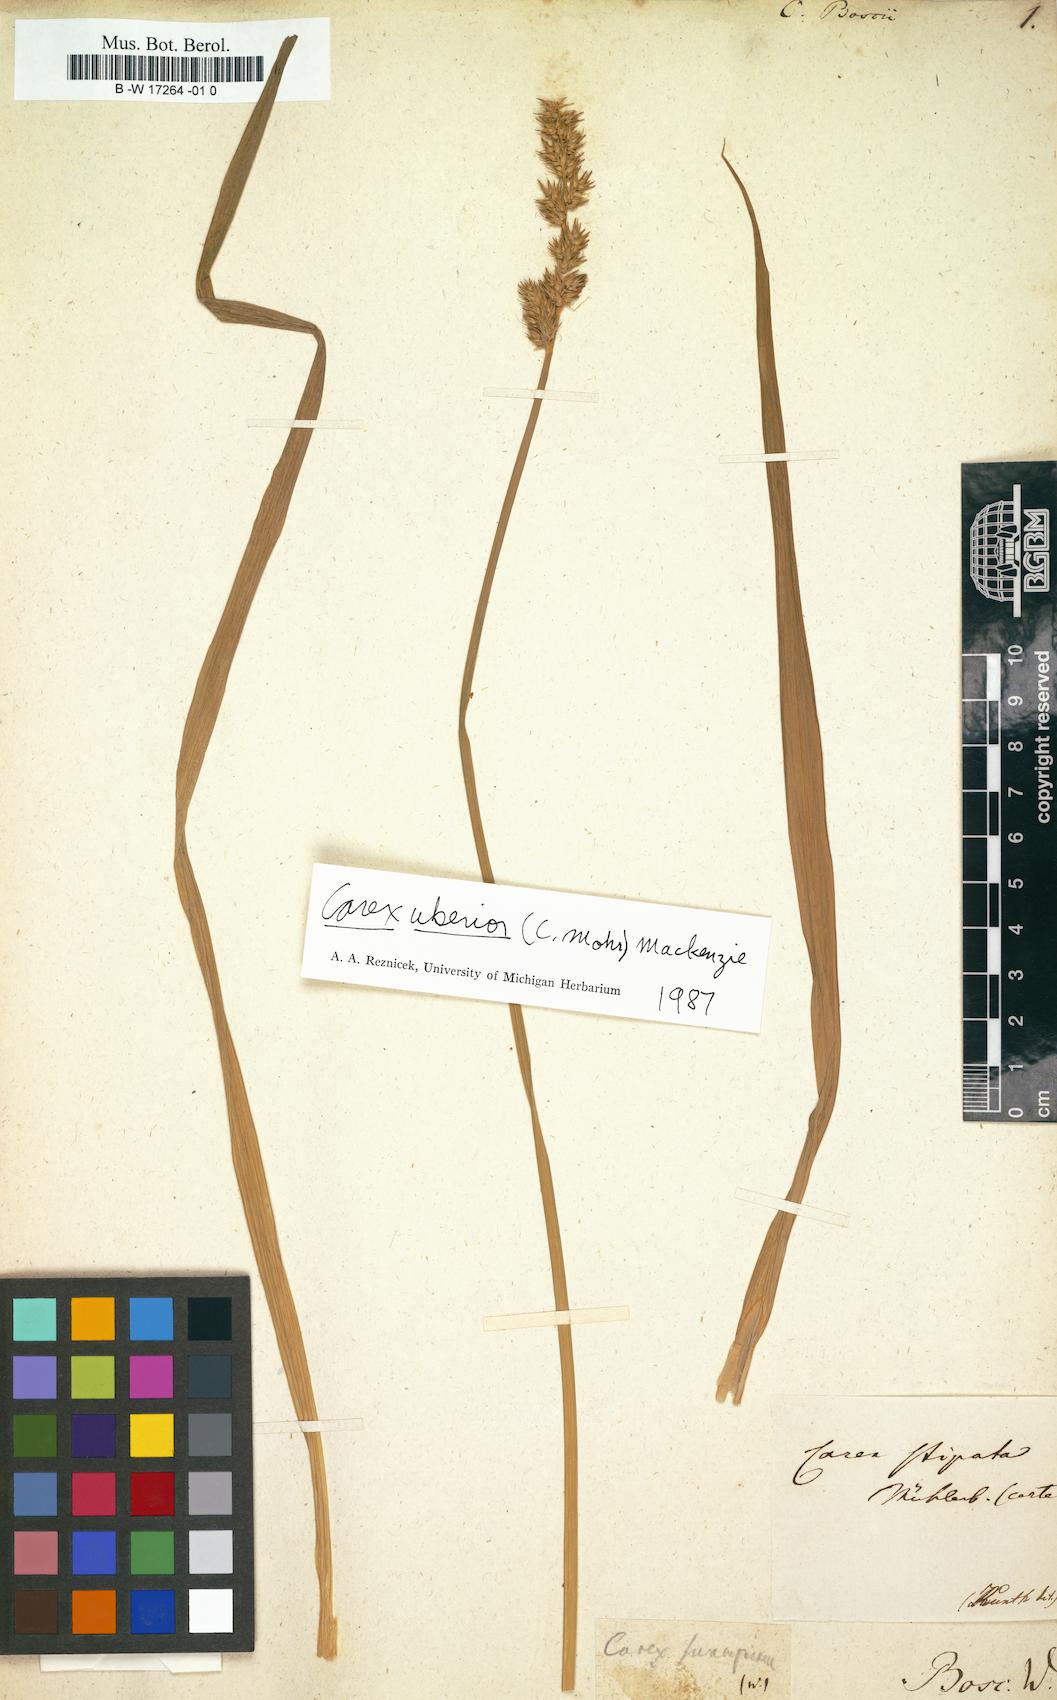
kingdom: Plantae
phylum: Tracheophyta
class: Liliopsida
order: Poales
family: Cyperaceae
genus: Carex
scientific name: Carex boscii
